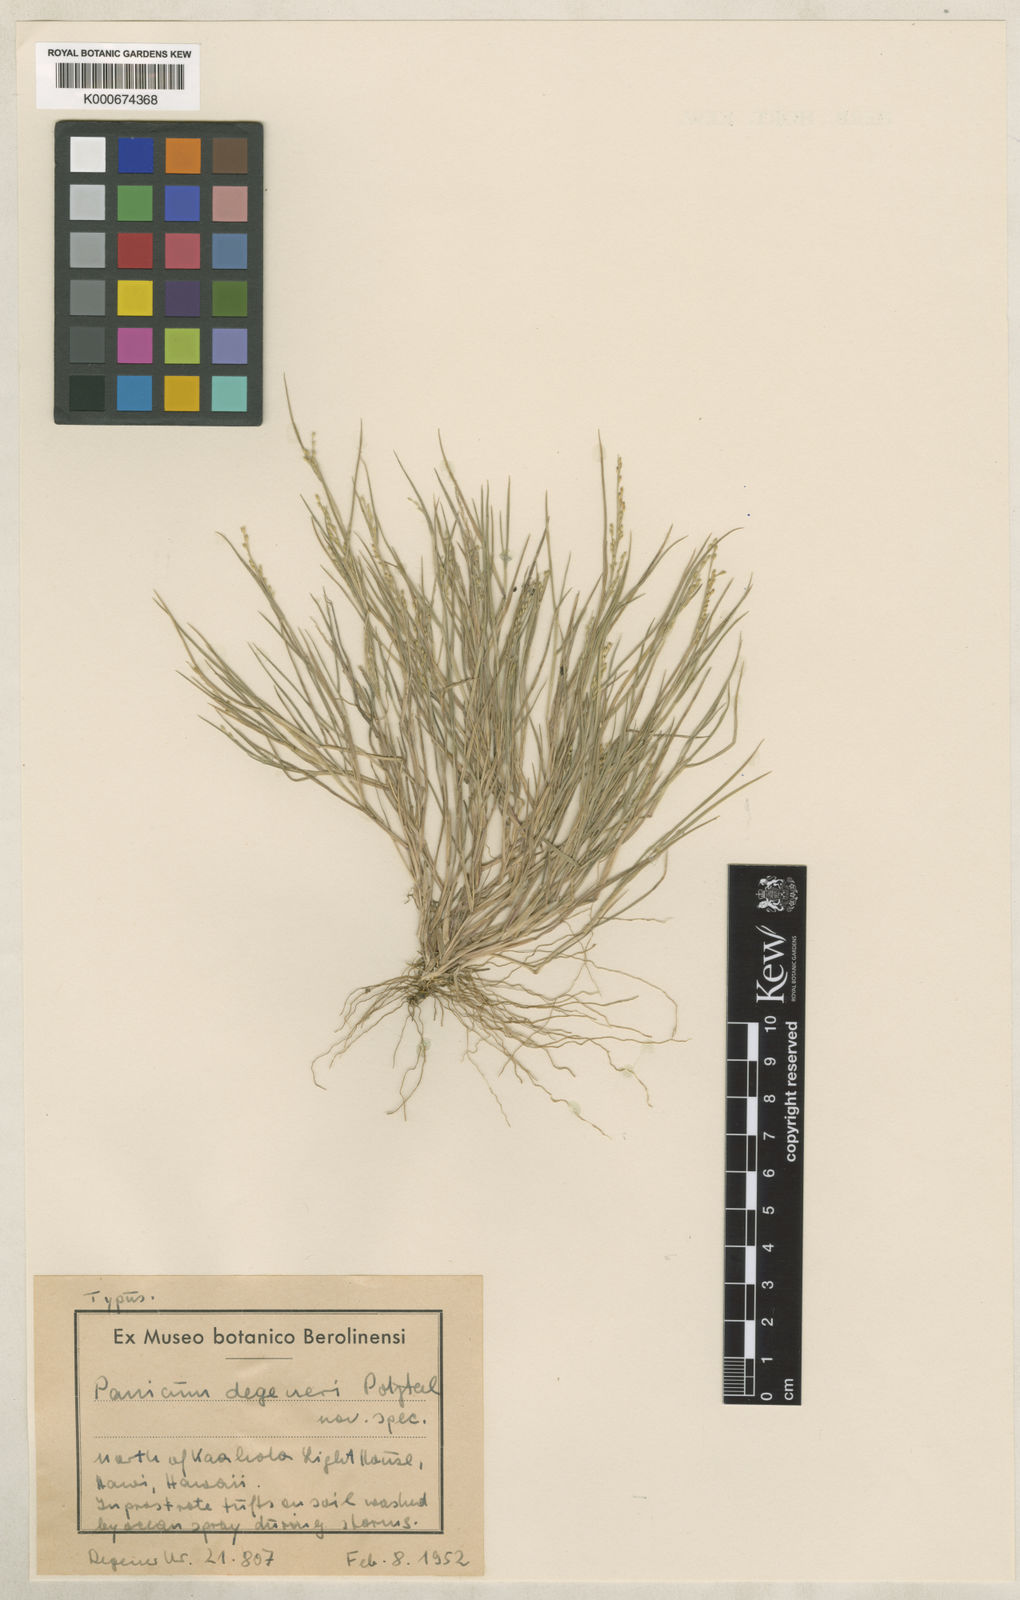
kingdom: Plantae
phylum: Tracheophyta
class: Liliopsida
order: Poales
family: Poaceae
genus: Panicum
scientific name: Panicum fauriei
